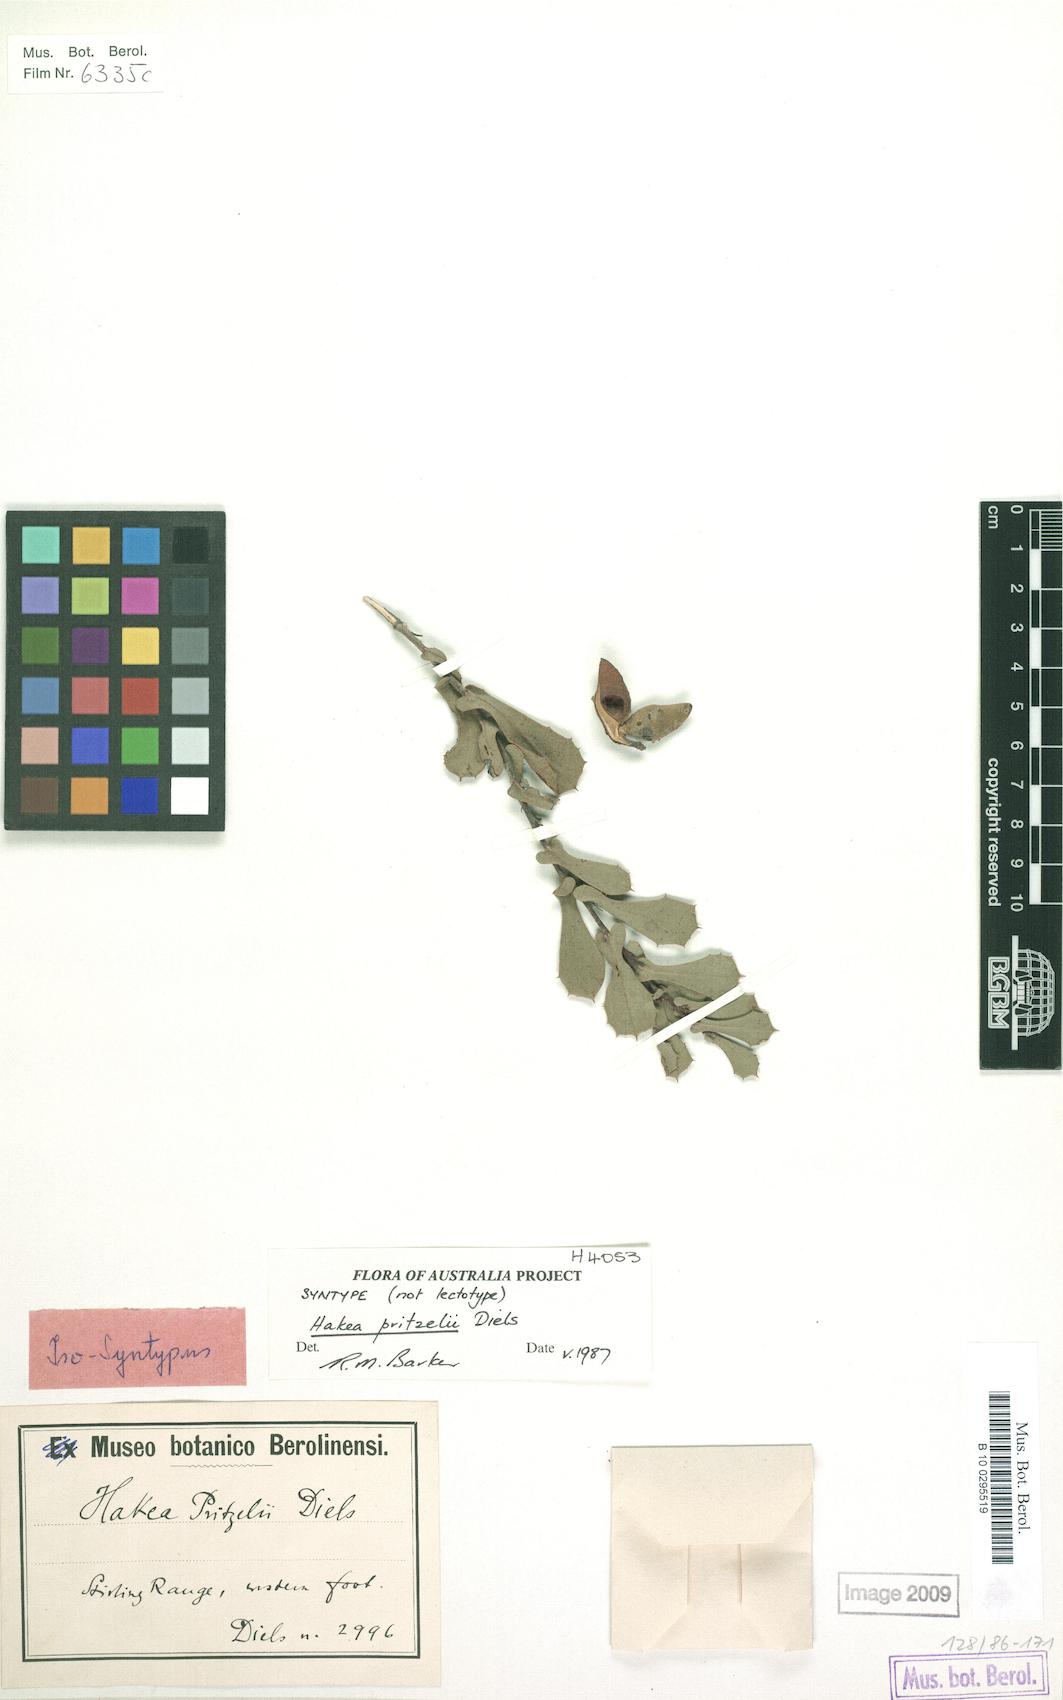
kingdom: Plantae
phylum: Tracheophyta
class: Magnoliopsida
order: Proteales
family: Proteaceae
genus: Hakea
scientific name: Hakea pritzelii
